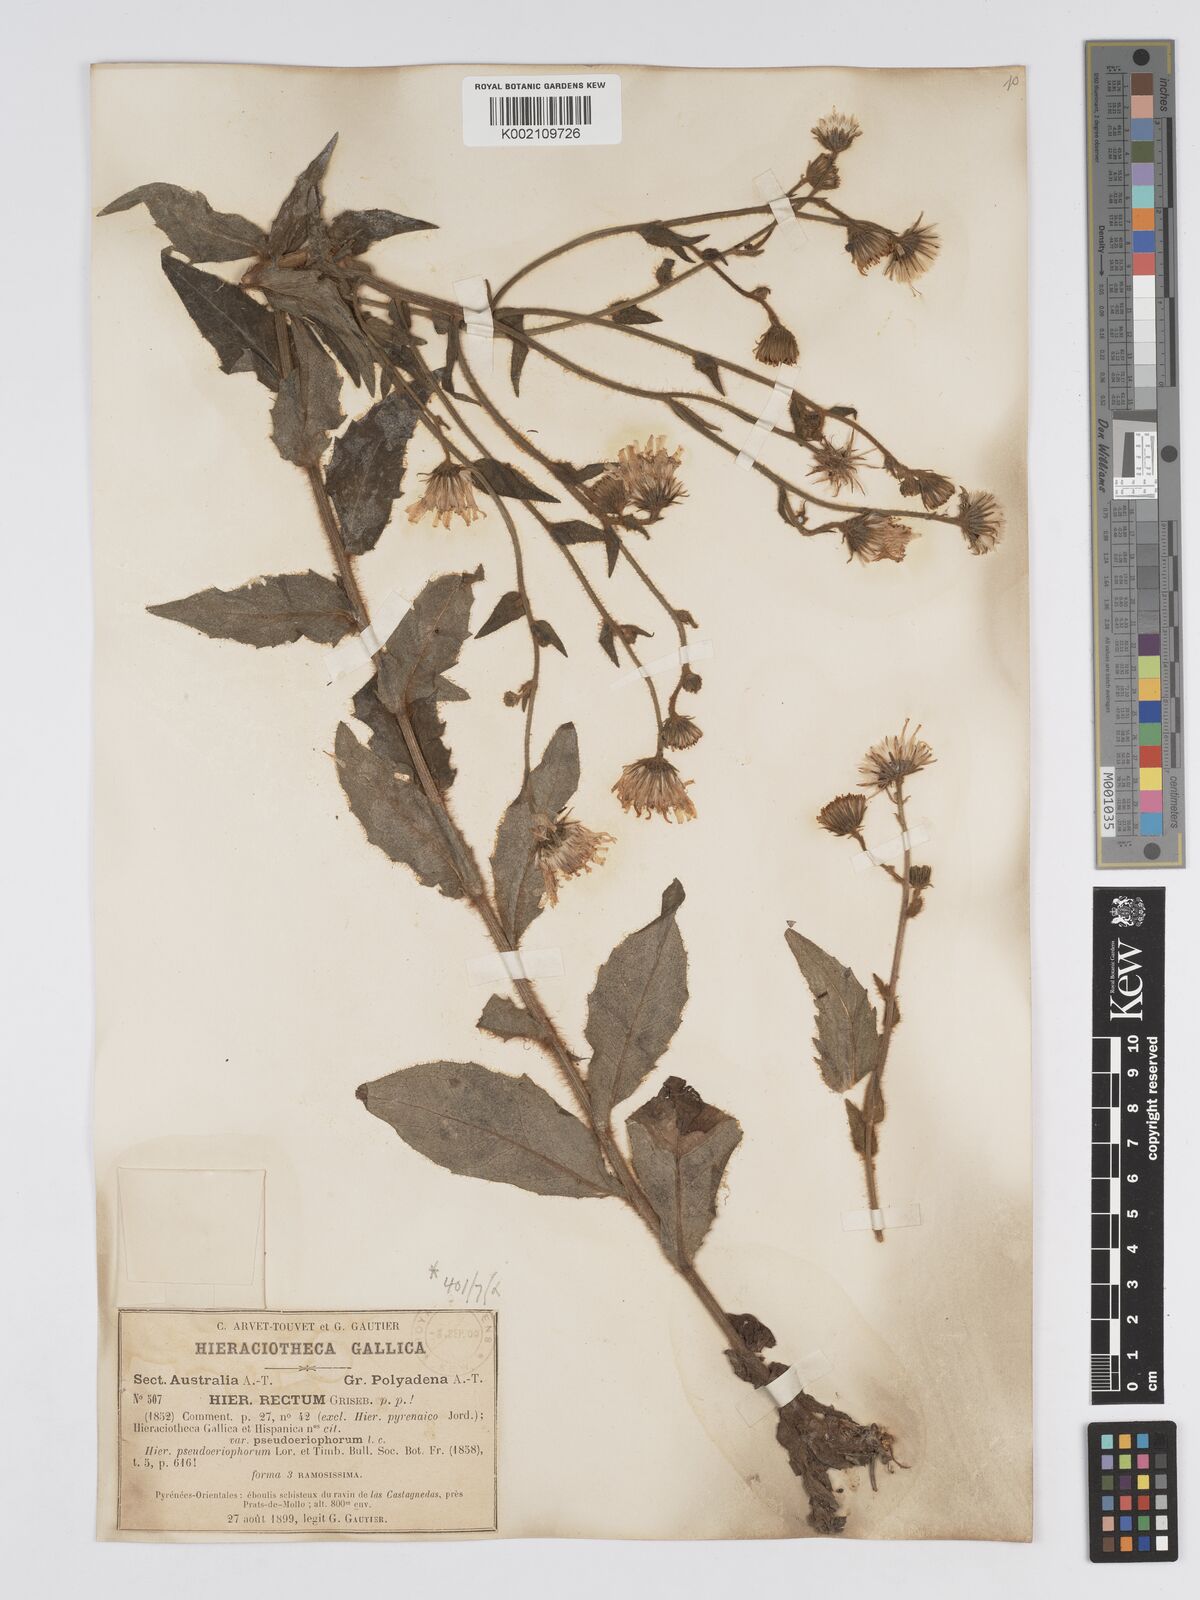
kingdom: Plantae
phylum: Tracheophyta
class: Magnoliopsida
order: Asterales
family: Asteraceae
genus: Hieracium
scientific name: Hieracium
